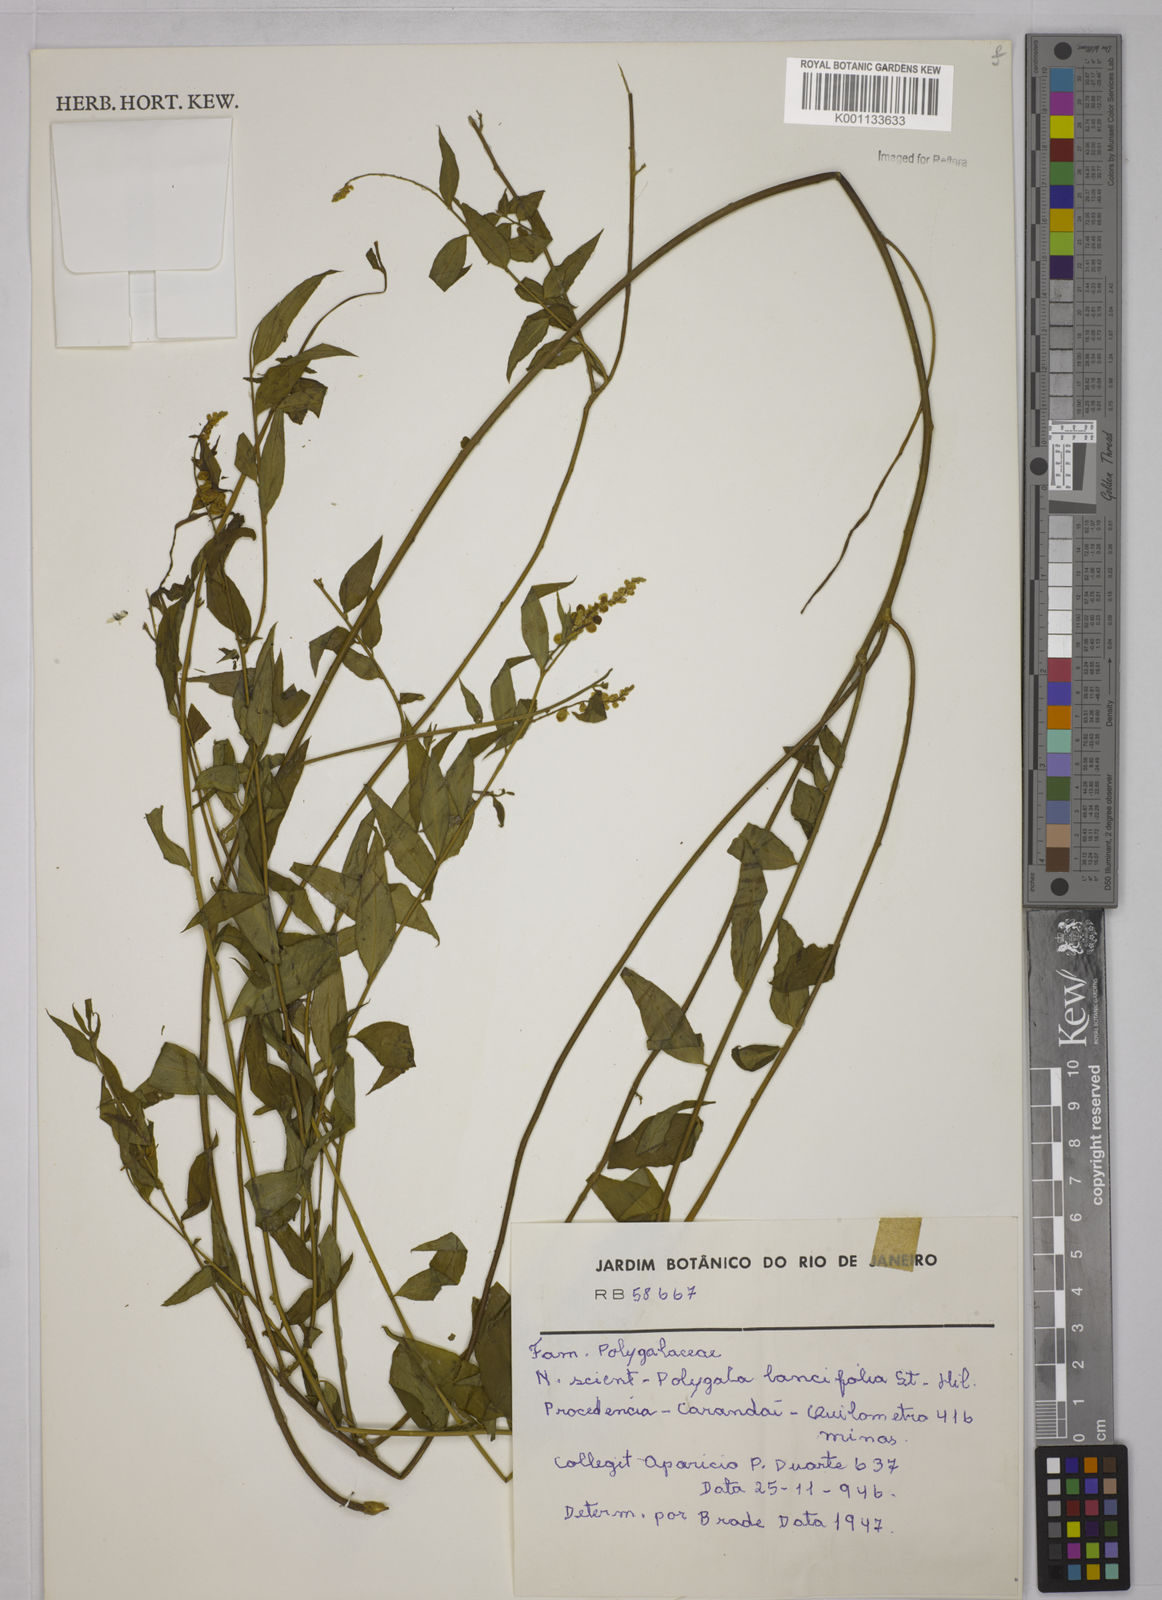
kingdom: Plantae
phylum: Tracheophyta
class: Magnoliopsida
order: Fabales
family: Polygalaceae
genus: Polygala
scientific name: Polygala lancifolia
